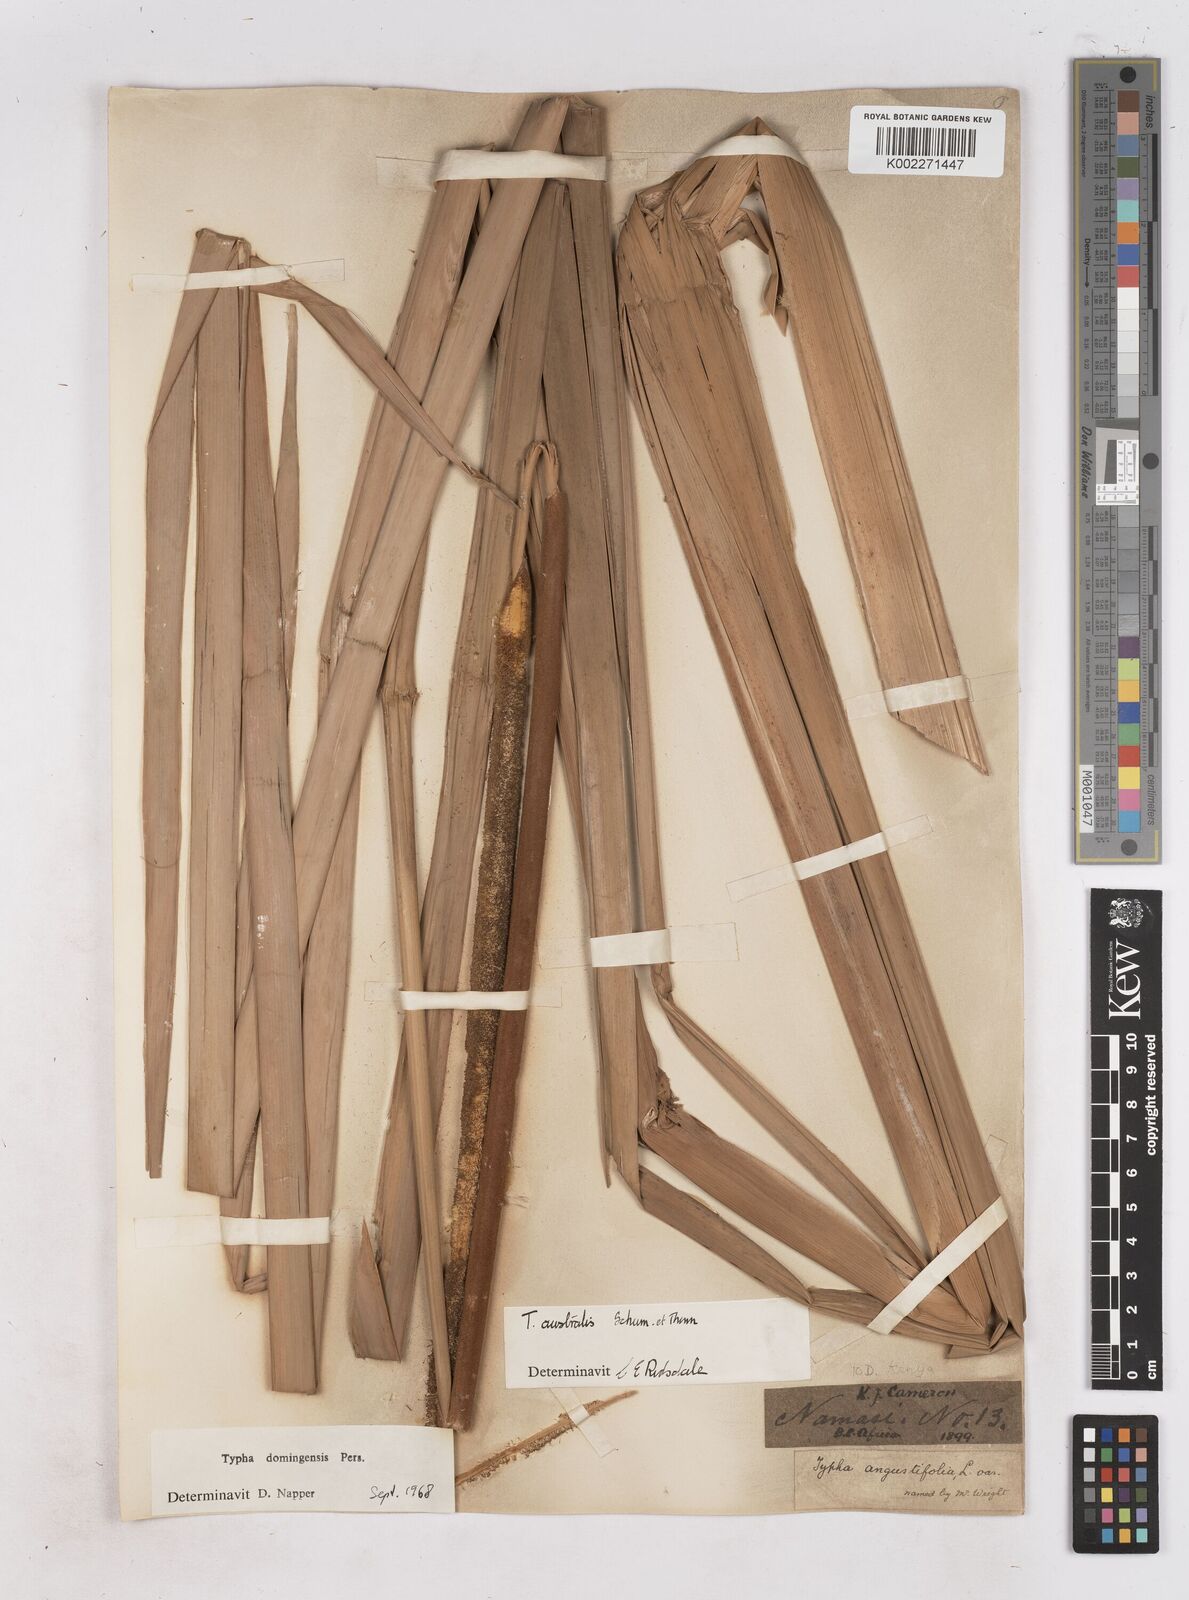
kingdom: Plantae
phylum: Tracheophyta
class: Liliopsida
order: Poales
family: Typhaceae
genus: Typha
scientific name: Typha domingensis
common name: Southern cattail
